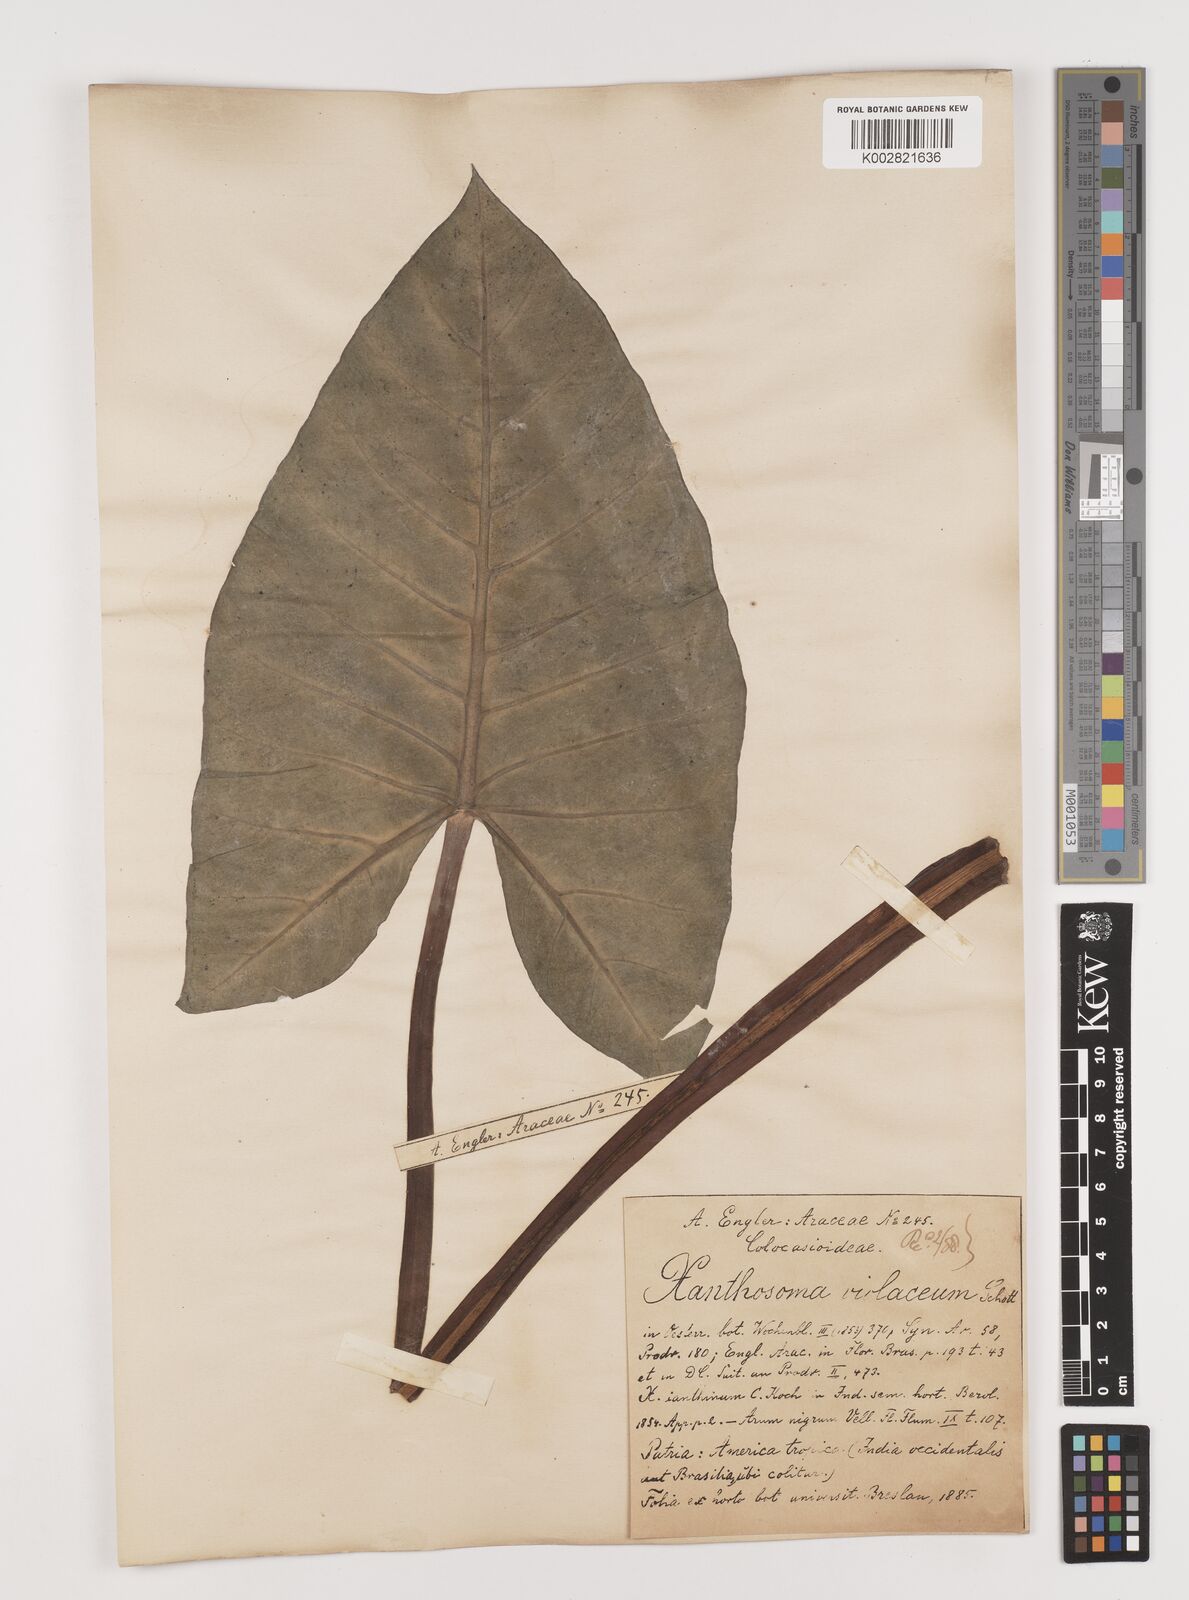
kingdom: Plantae
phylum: Tracheophyta
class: Liliopsida
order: Alismatales
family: Araceae
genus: Xanthosoma
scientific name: Xanthosoma sagittifolium
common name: Arrowleaf elephant's ear
